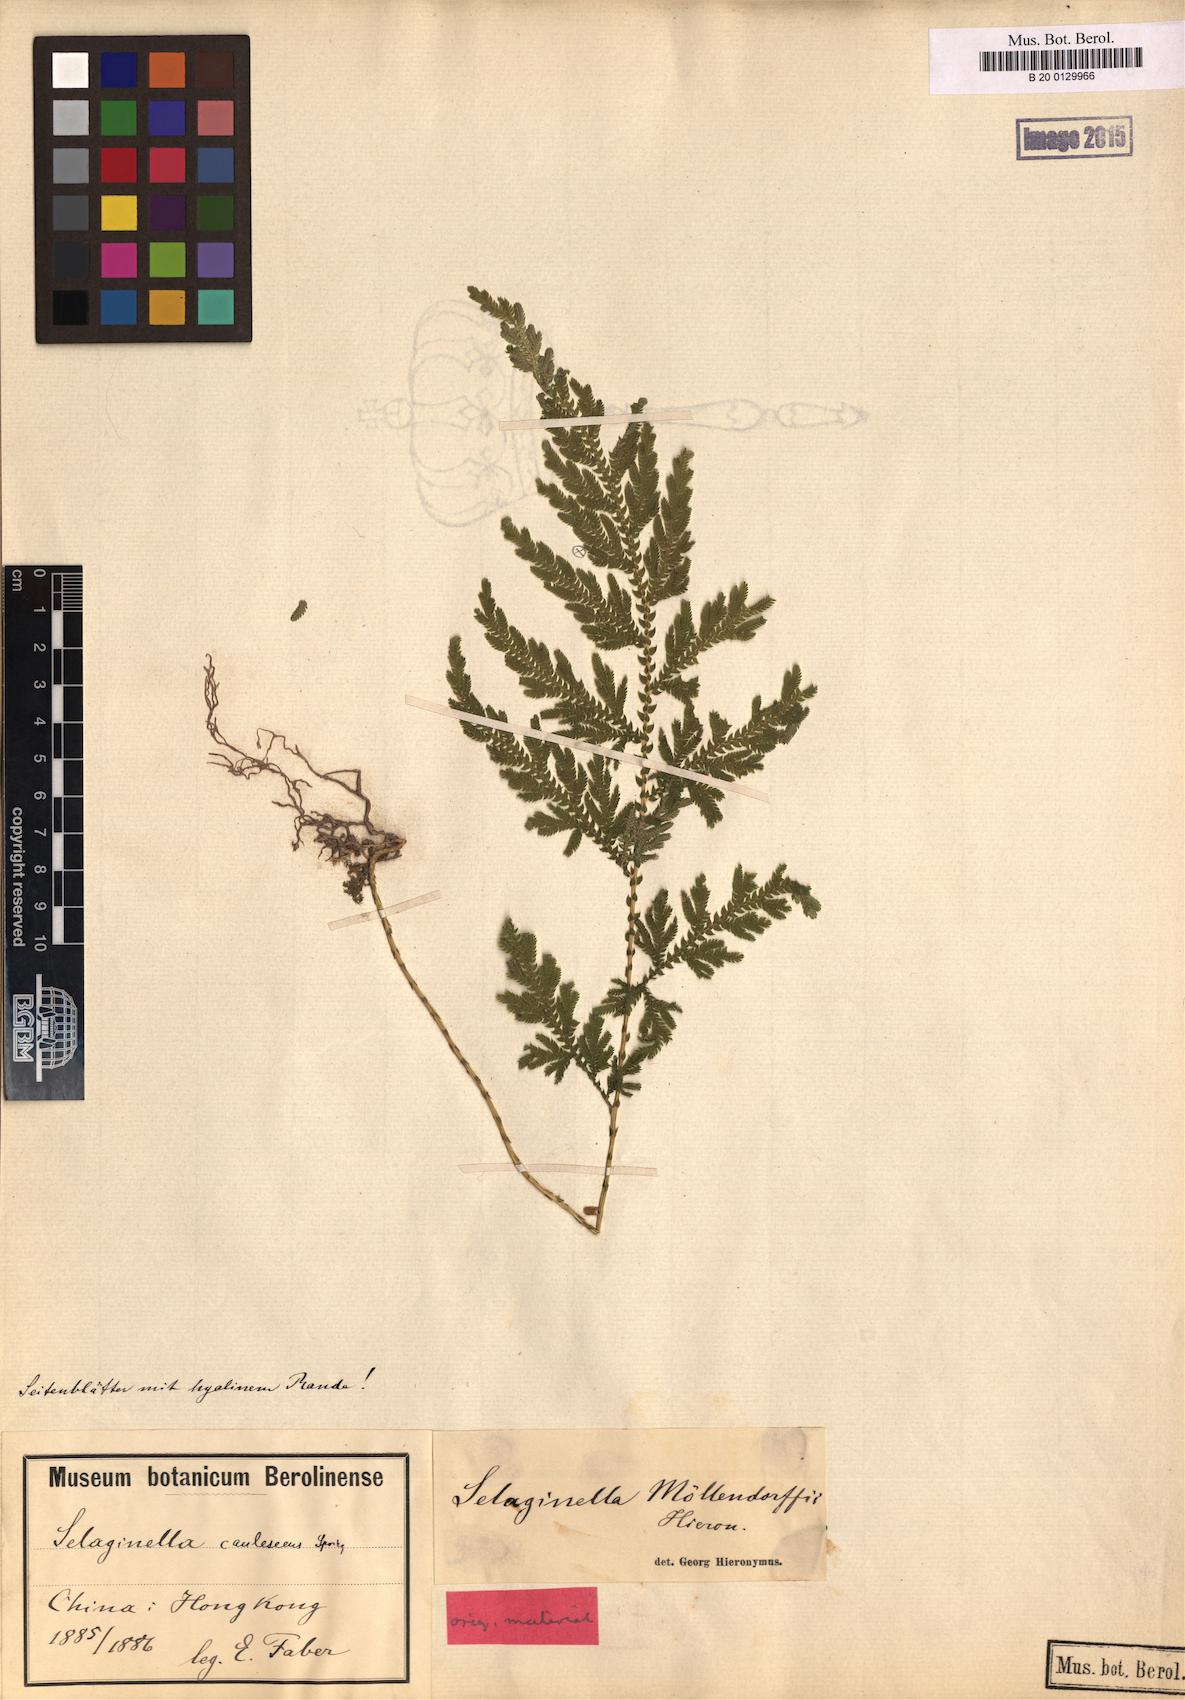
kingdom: Plantae
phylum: Tracheophyta
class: Lycopodiopsida
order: Selaginellales
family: Selaginellaceae
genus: Selaginella
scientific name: Selaginella moellendorffii
